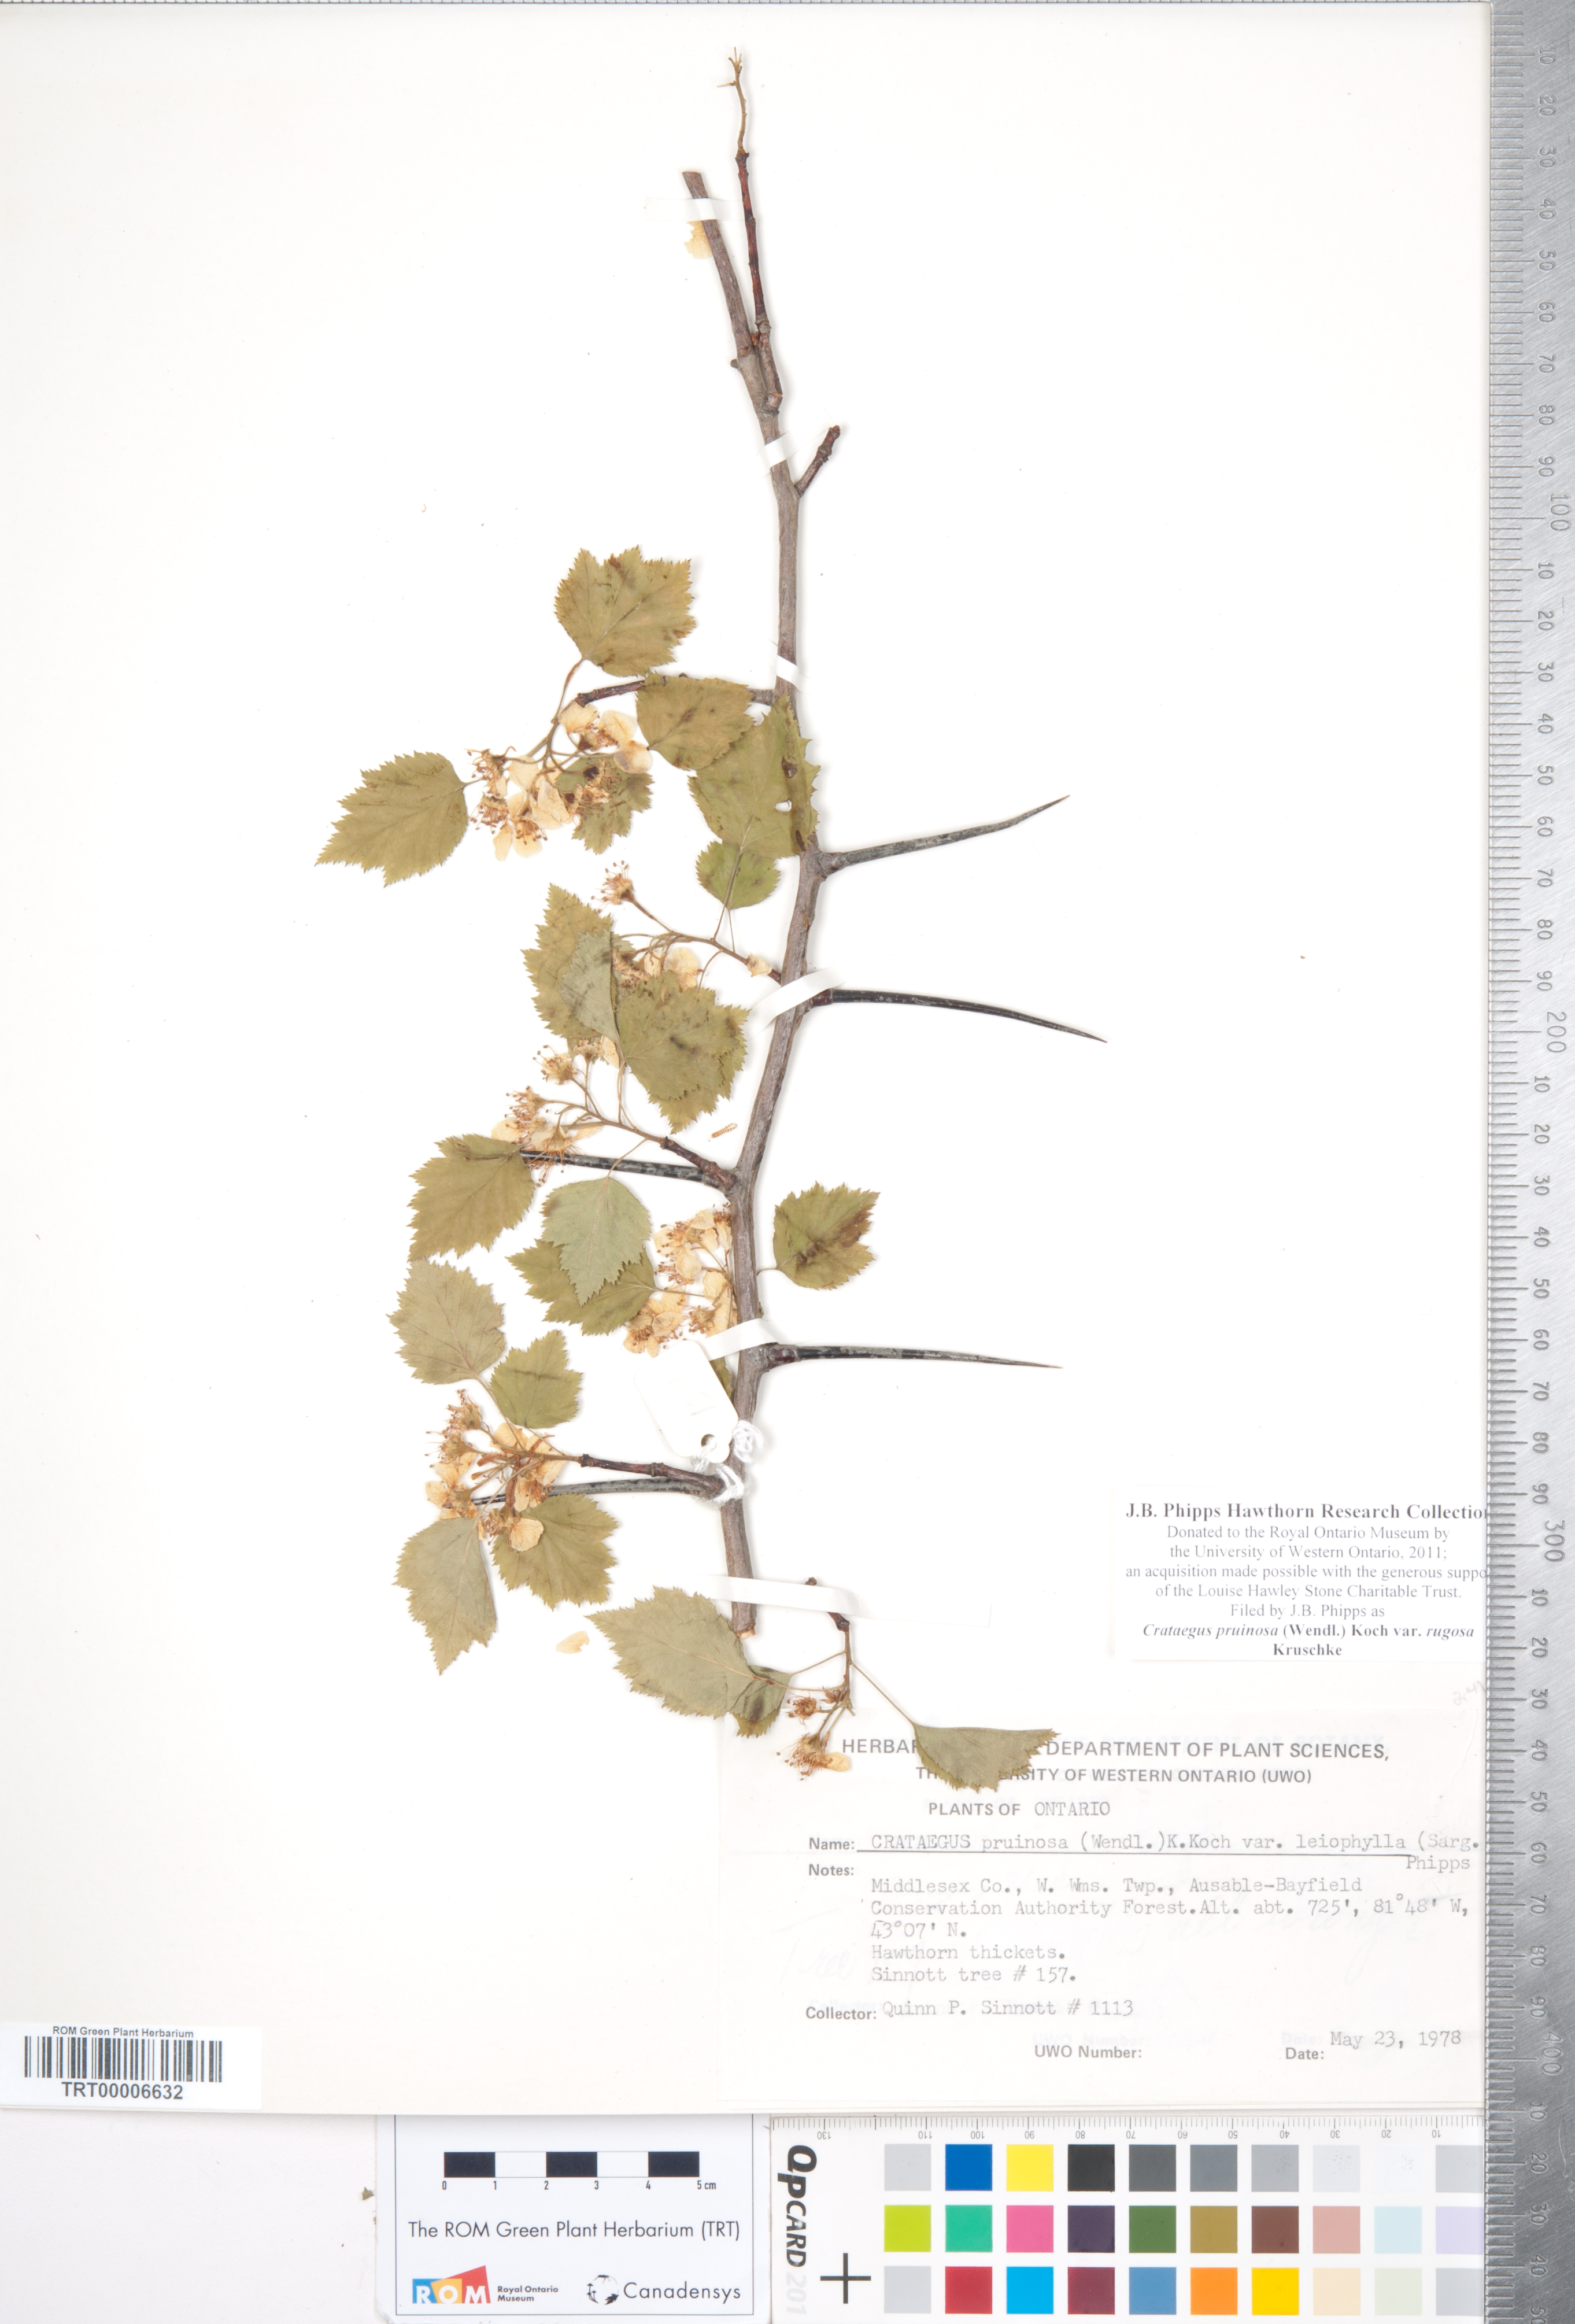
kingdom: Plantae
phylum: Tracheophyta
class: Magnoliopsida
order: Rosales
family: Rosaceae
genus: Crataegus
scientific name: Crataegus pruinosa
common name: Waxy-fruit hawthorn
